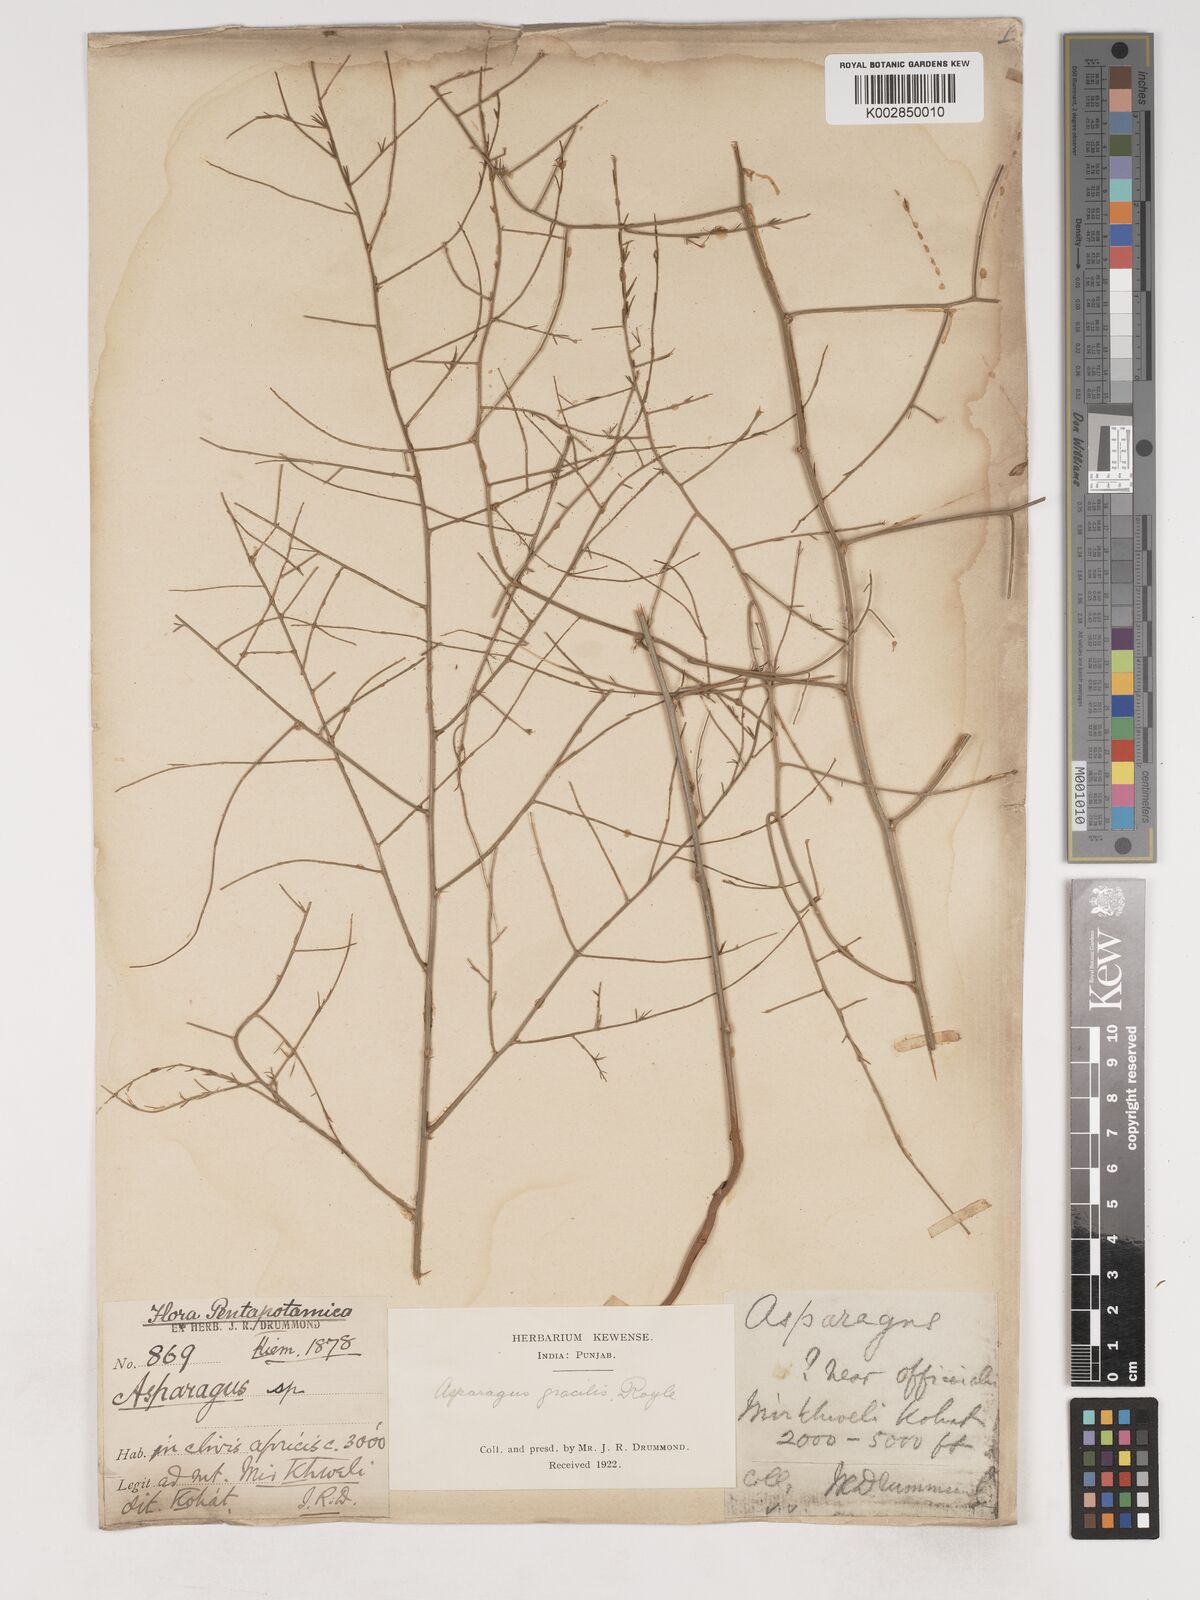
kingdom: Plantae
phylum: Tracheophyta
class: Liliopsida
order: Asparagales
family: Asparagaceae
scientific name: Asparagaceae
